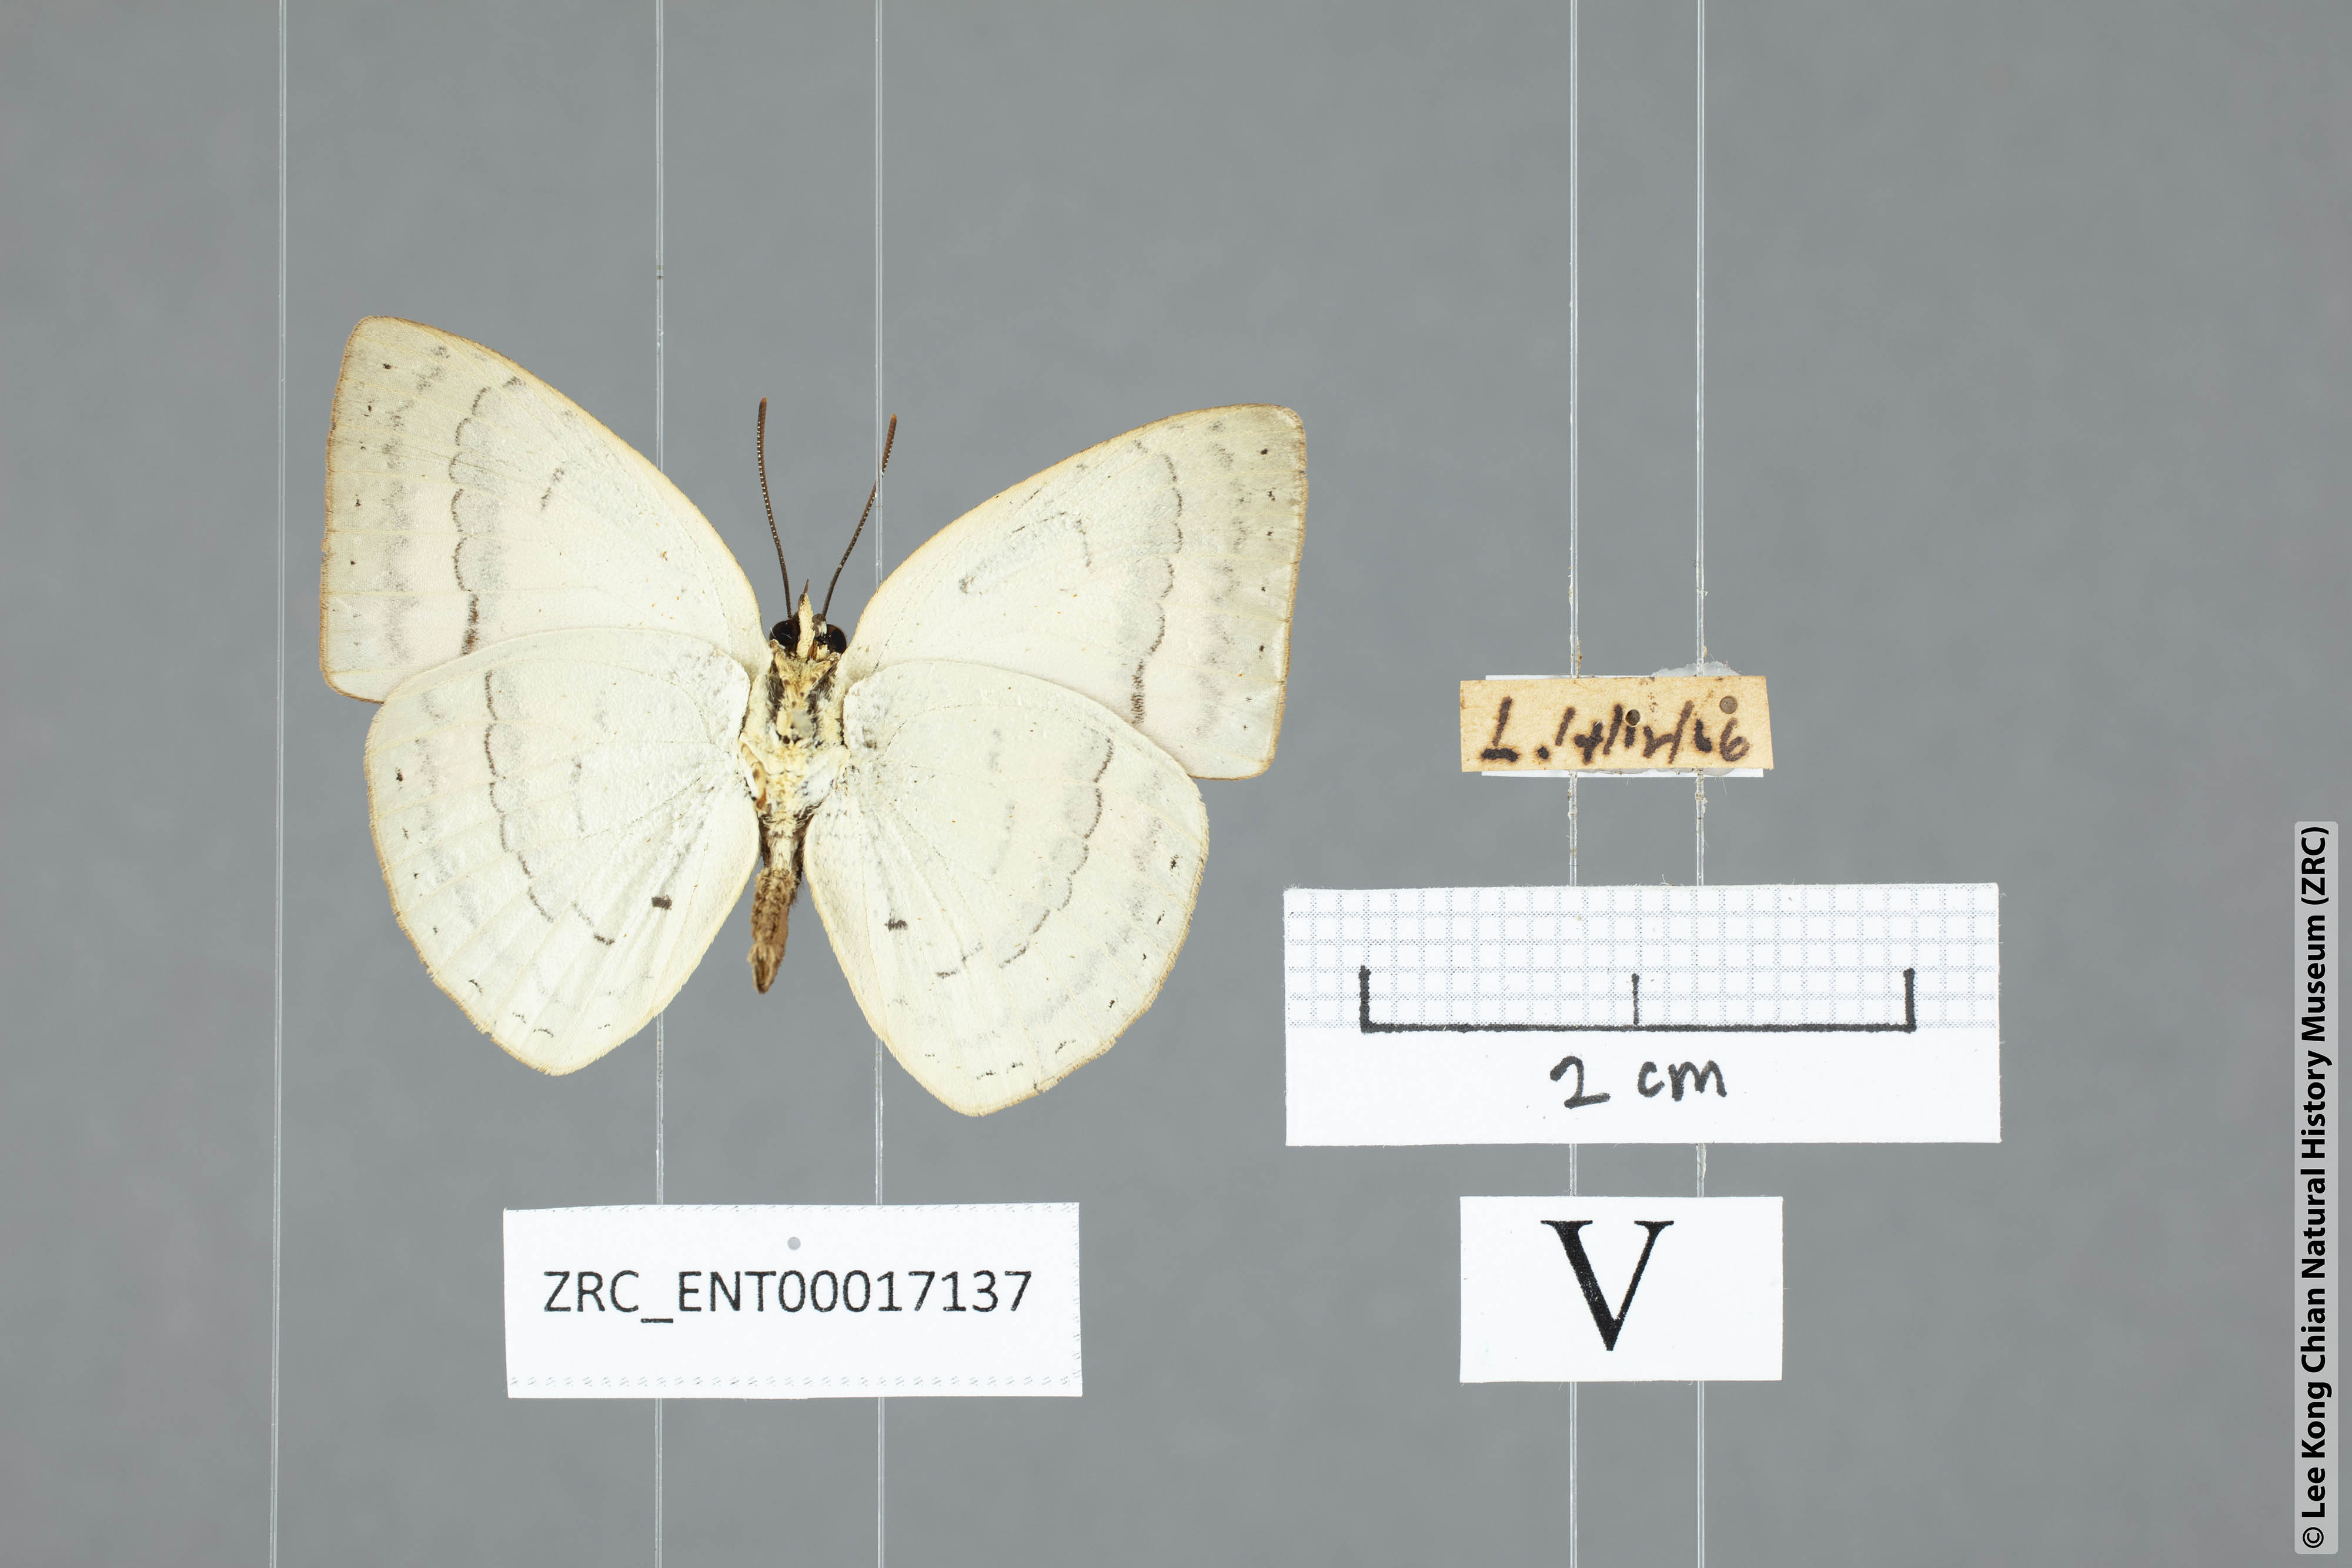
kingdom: Animalia
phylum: Arthropoda
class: Insecta
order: Lepidoptera
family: Lycaenidae
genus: Curetis
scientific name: Curetis insularis
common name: Narrow-banded sunbeam
